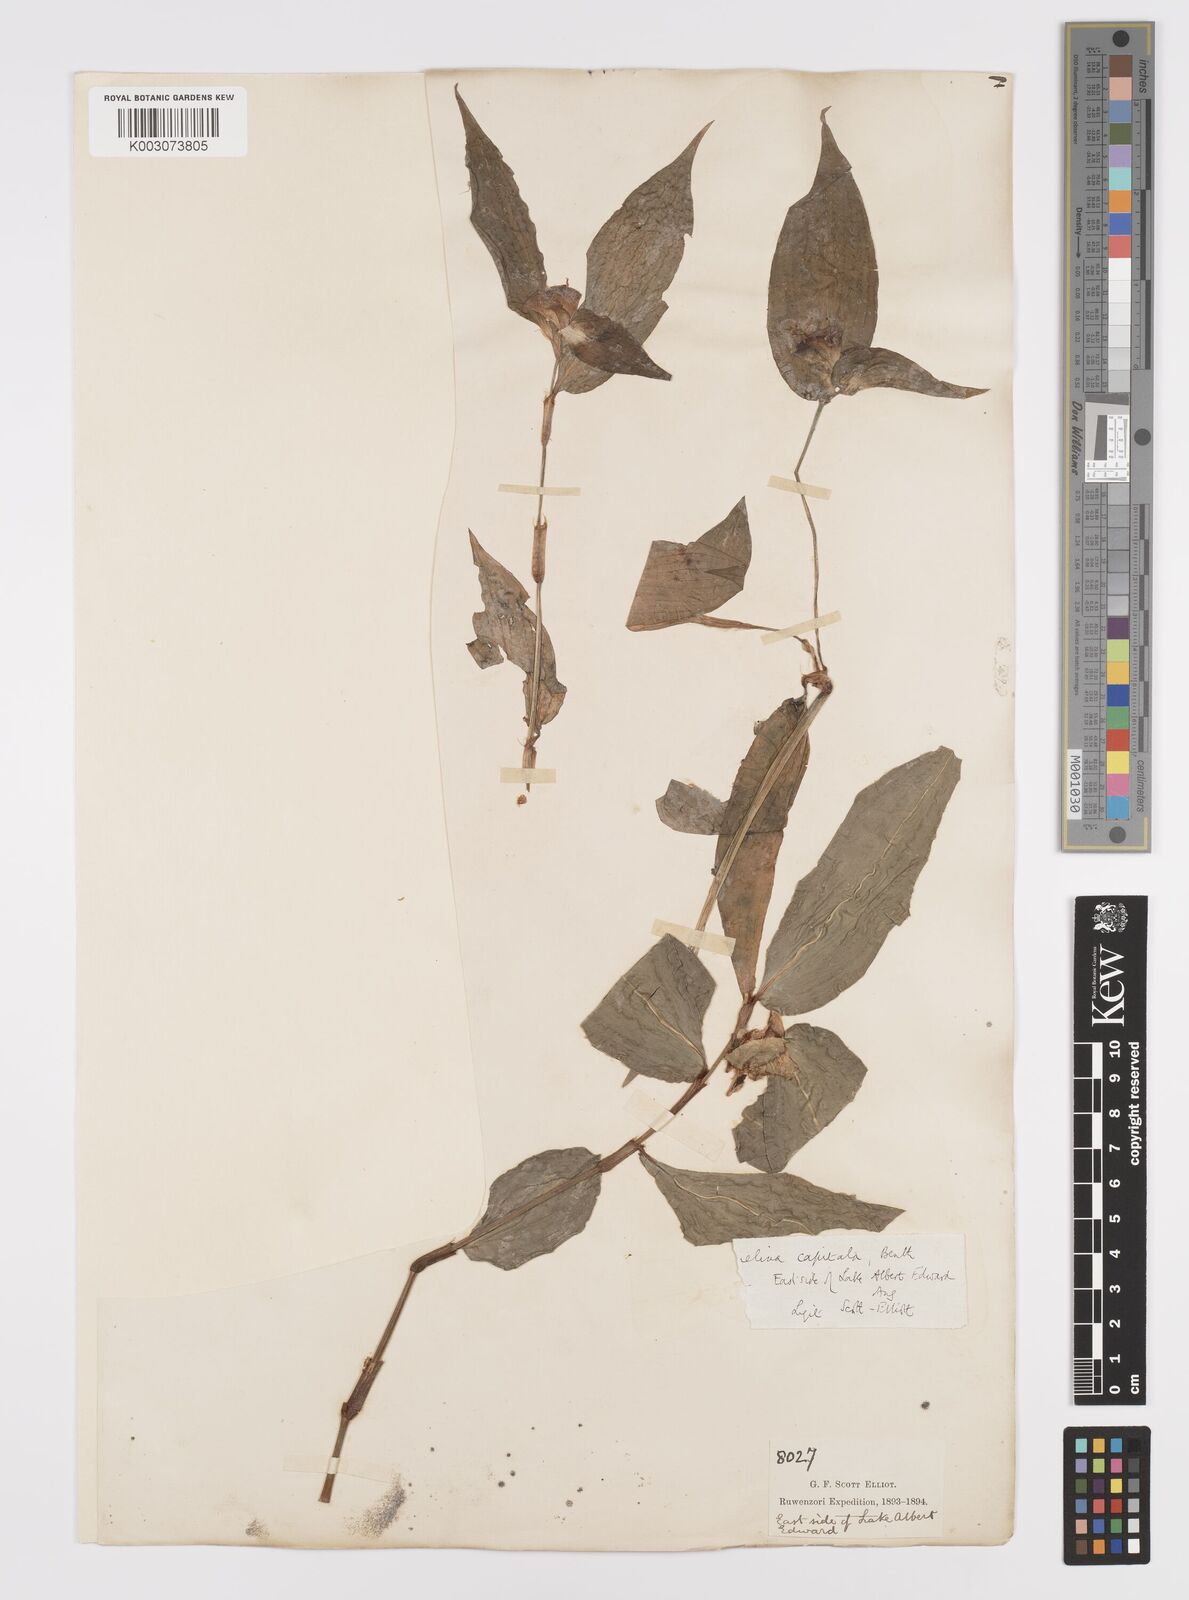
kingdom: Plantae
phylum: Tracheophyta
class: Liliopsida
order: Commelinales
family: Commelinaceae
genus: Commelina
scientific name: Commelina capitata
